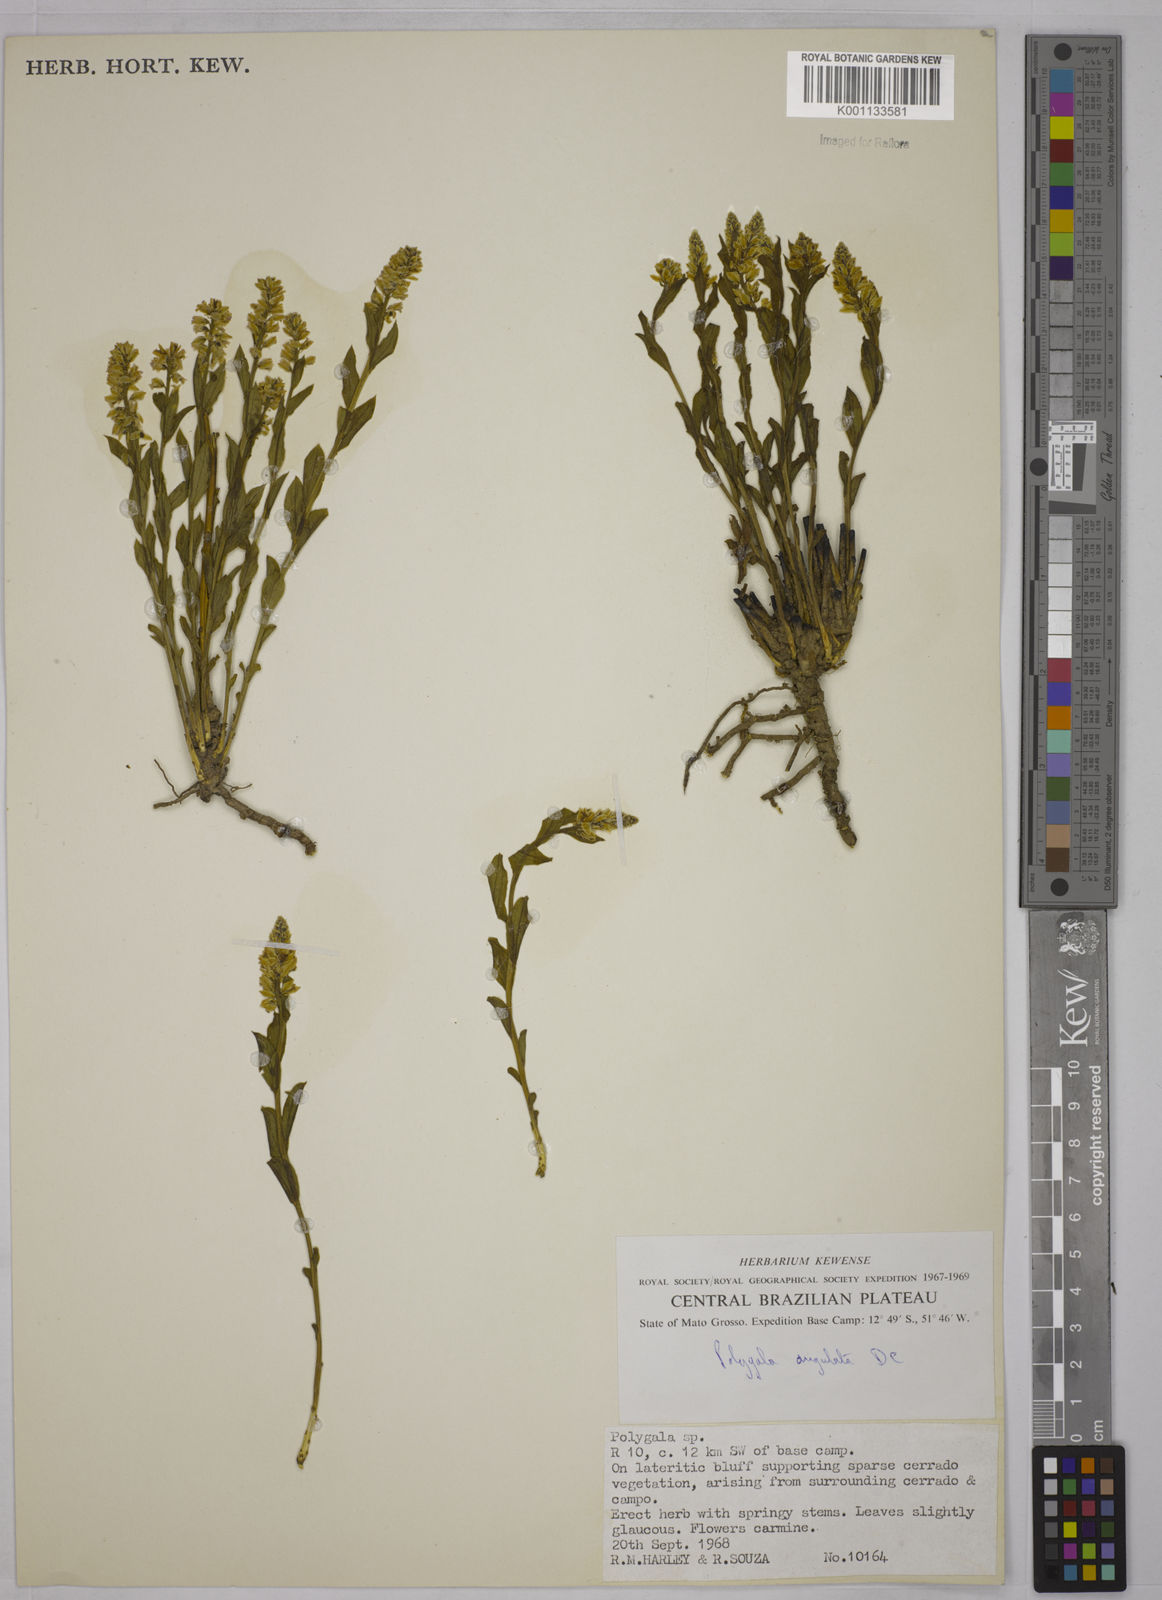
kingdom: Plantae
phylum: Tracheophyta
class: Magnoliopsida
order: Fabales
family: Polygalaceae
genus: Polygala
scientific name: Polygala poaya
